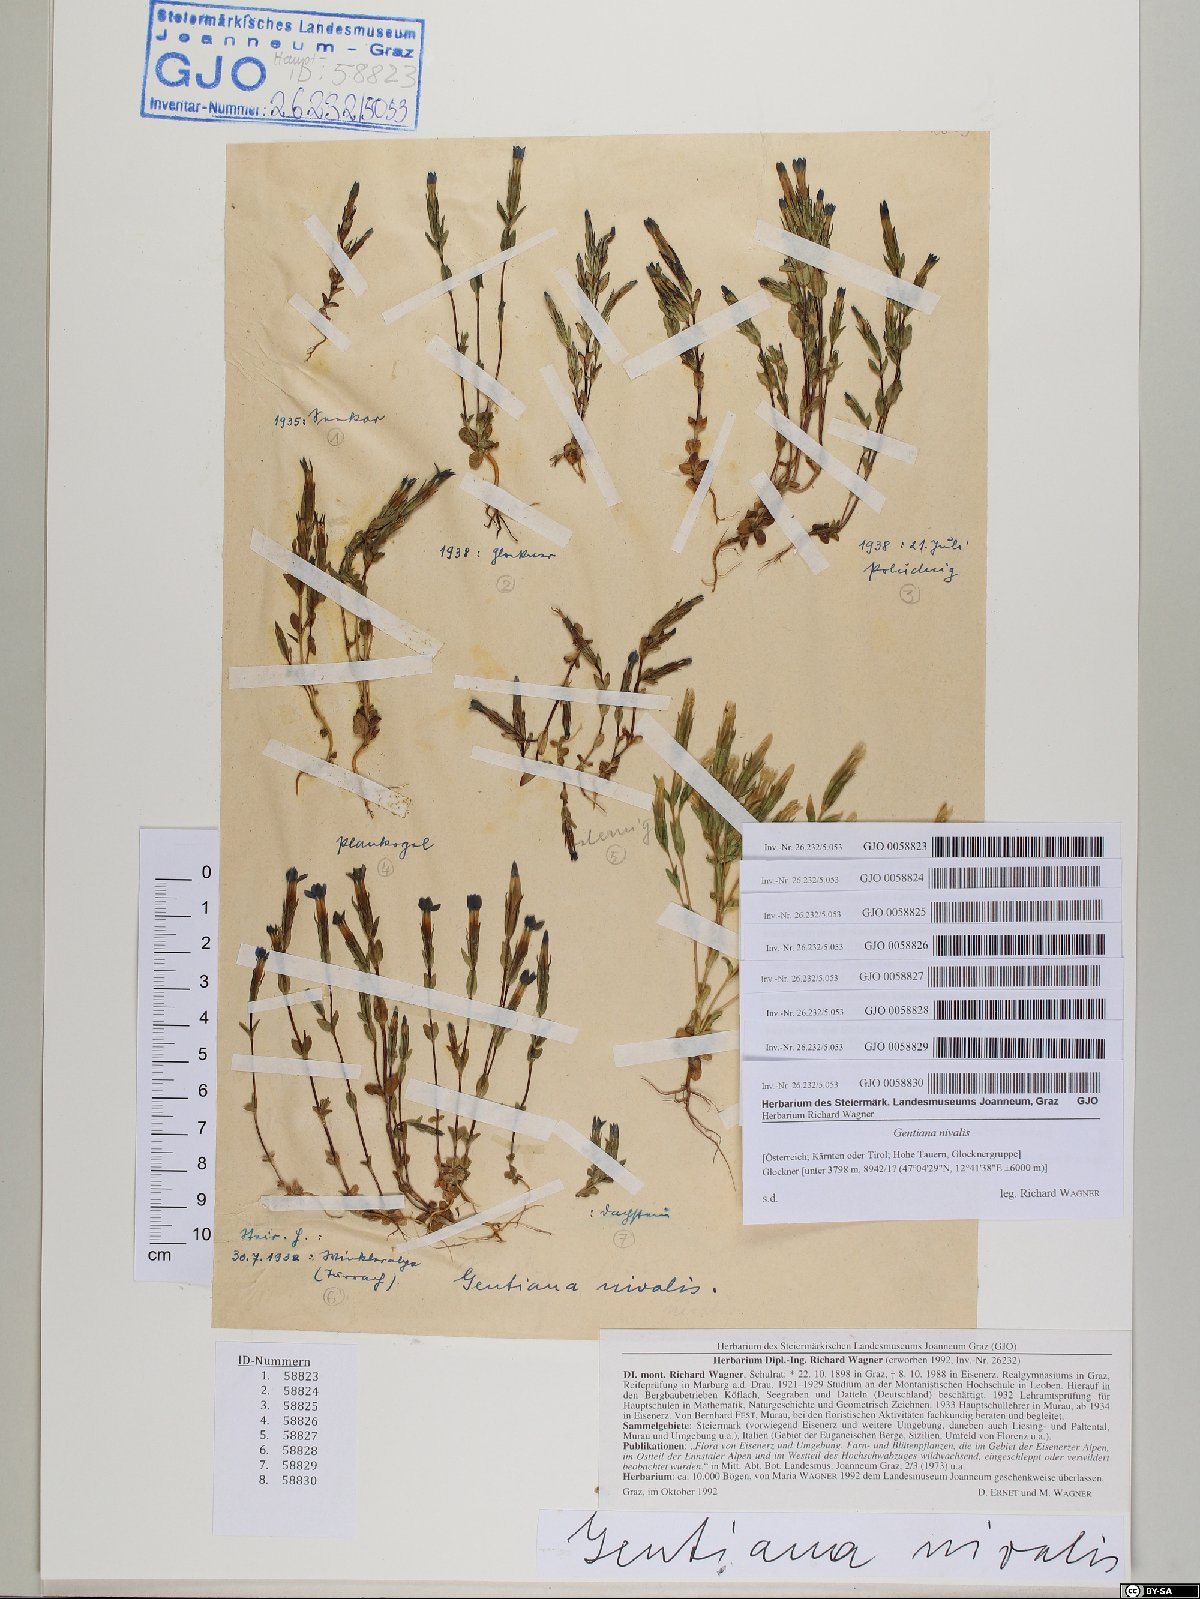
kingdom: Plantae
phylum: Tracheophyta
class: Magnoliopsida
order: Gentianales
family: Gentianaceae
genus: Gentiana
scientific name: Gentiana nivalis
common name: Alpine gentian
